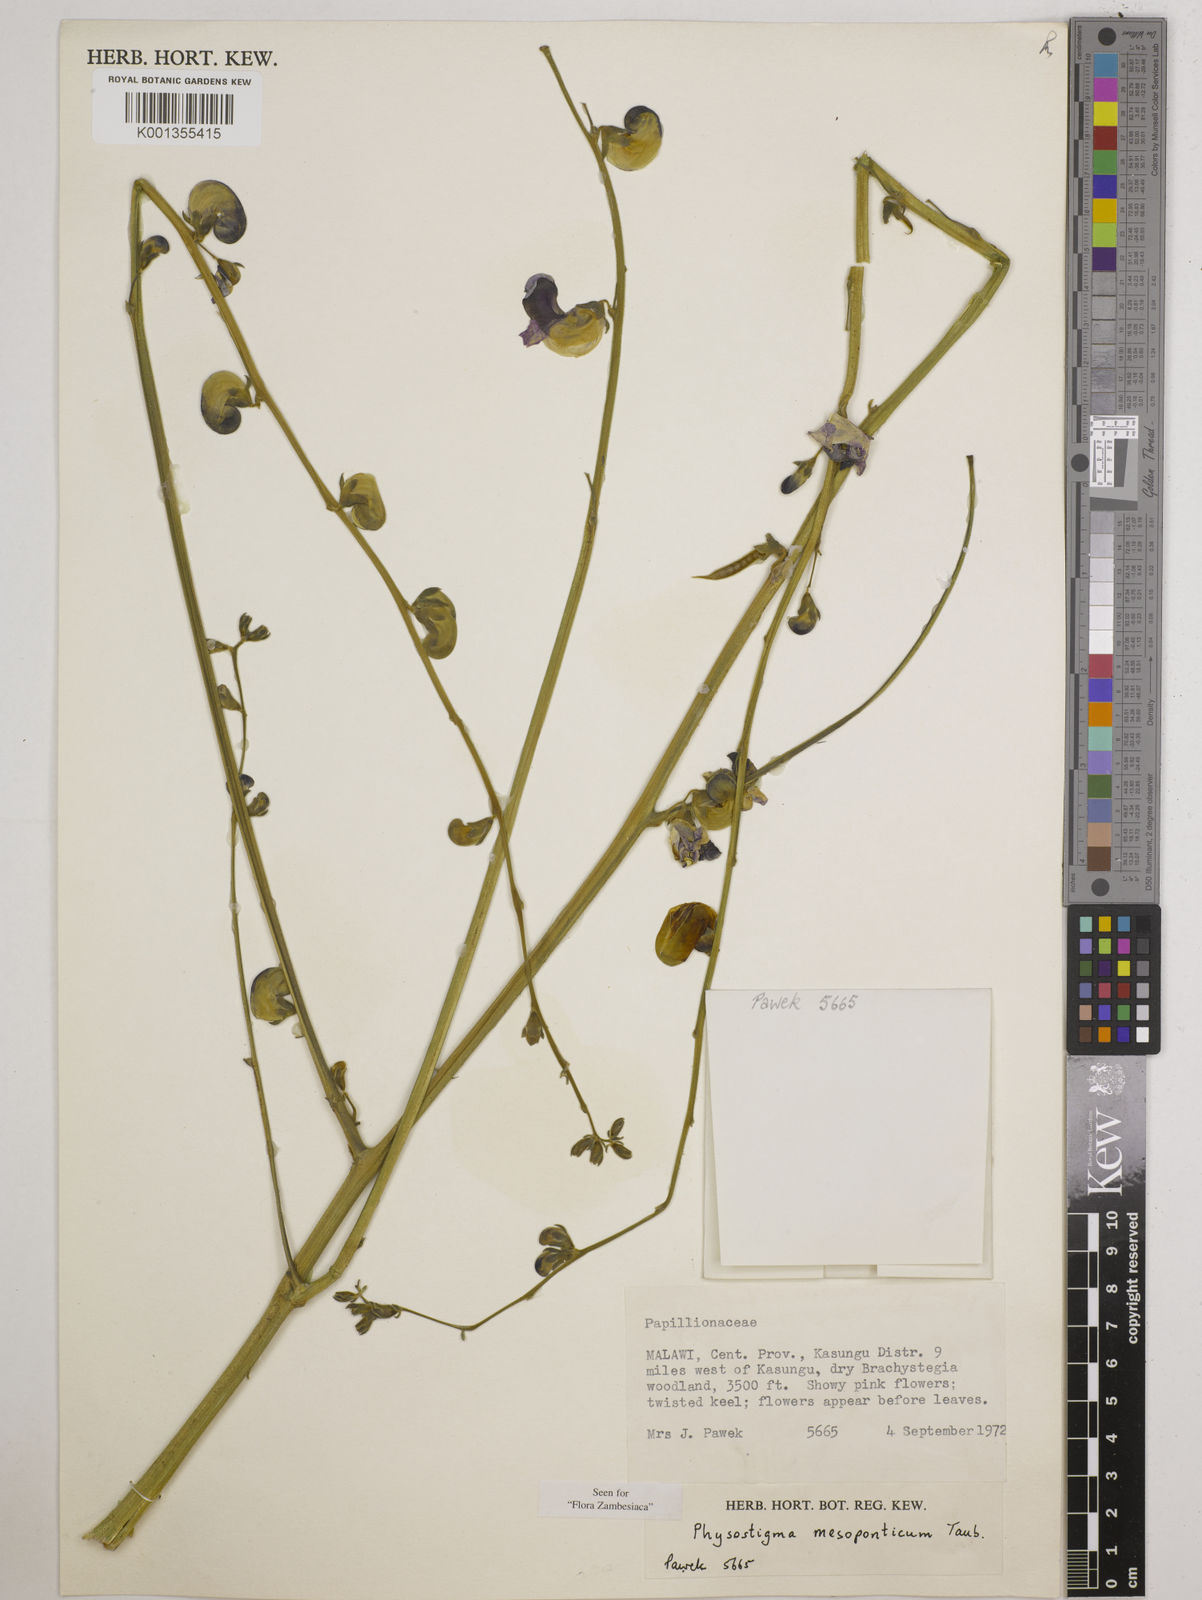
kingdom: Plantae
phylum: Tracheophyta
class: Magnoliopsida
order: Fabales
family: Fabaceae
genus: Physostigma
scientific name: Physostigma mesoponticum
